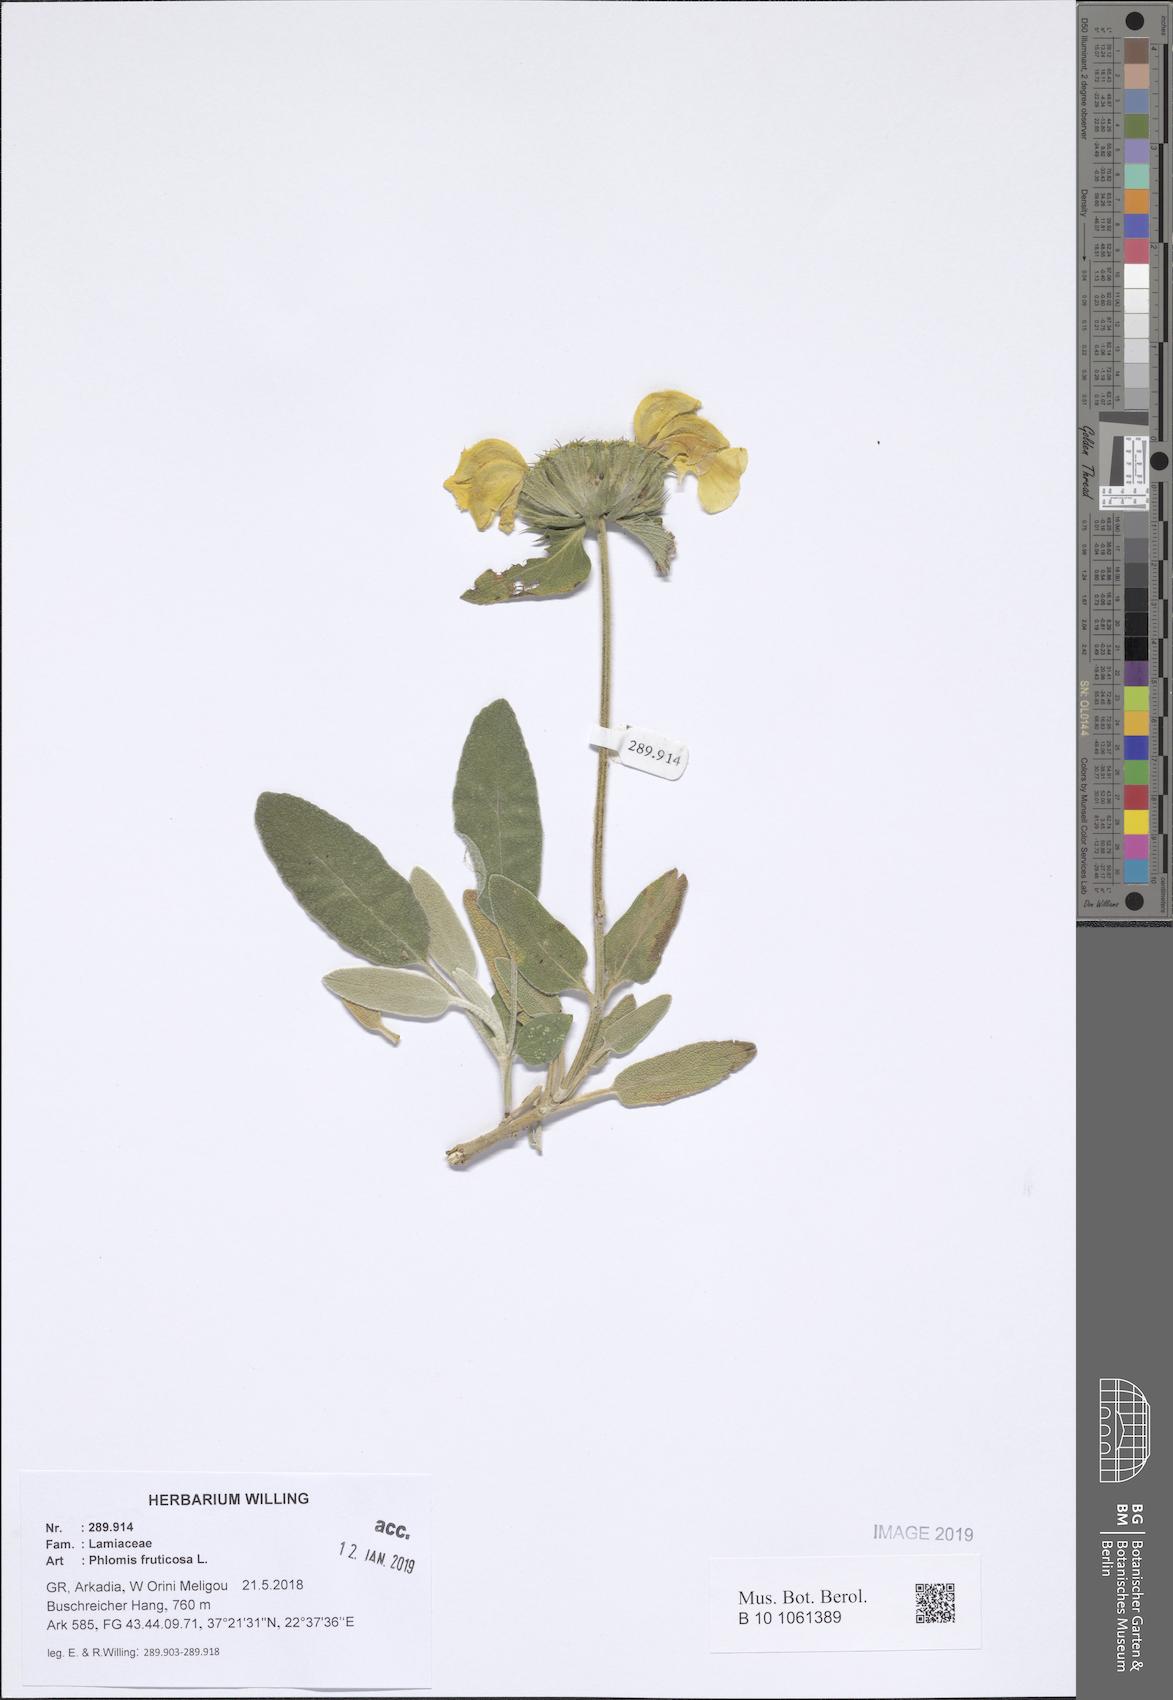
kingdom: Plantae
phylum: Tracheophyta
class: Magnoliopsida
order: Lamiales
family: Lamiaceae
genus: Phlomis
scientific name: Phlomis fruticosa
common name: Jerusalem sage
